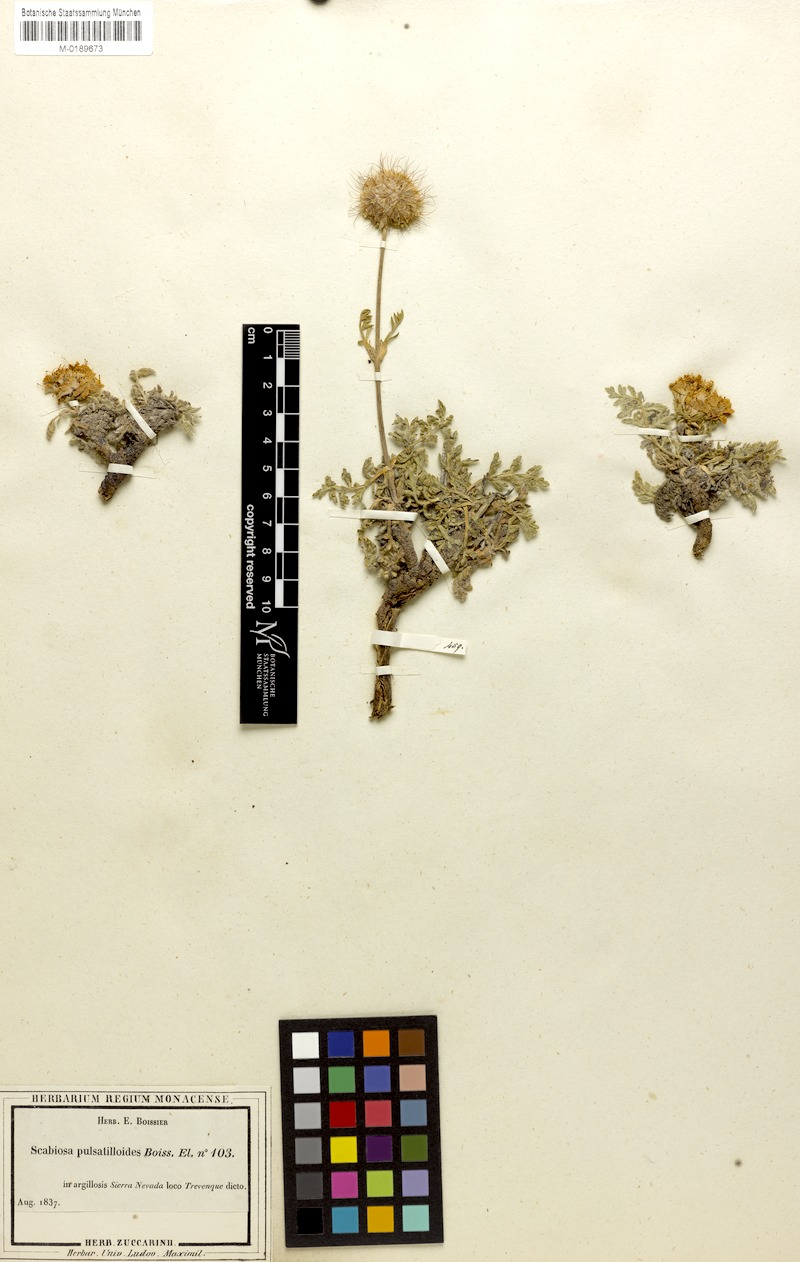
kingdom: Plantae
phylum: Tracheophyta
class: Magnoliopsida
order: Dipsacales
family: Caprifoliaceae
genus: Lomelosia
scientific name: Lomelosia pulsatilloides
